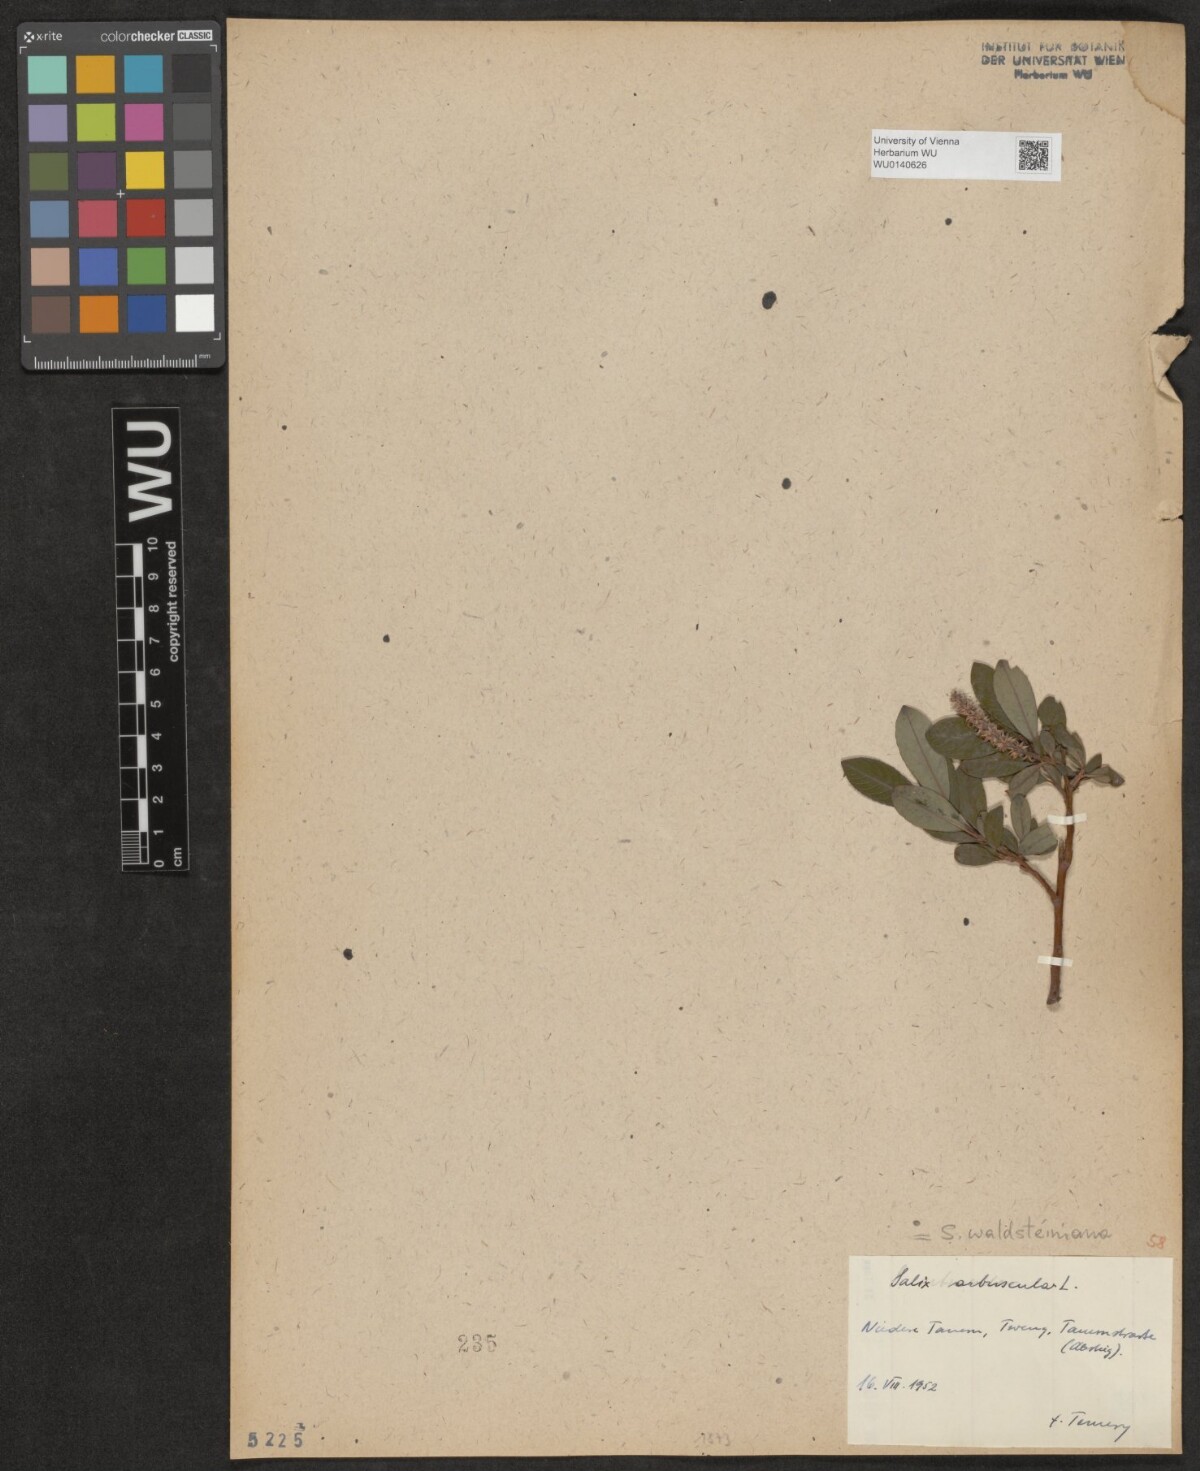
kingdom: Plantae
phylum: Tracheophyta
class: Magnoliopsida
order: Malpighiales
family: Salicaceae
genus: Salix
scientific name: Salix waldsteiniana
